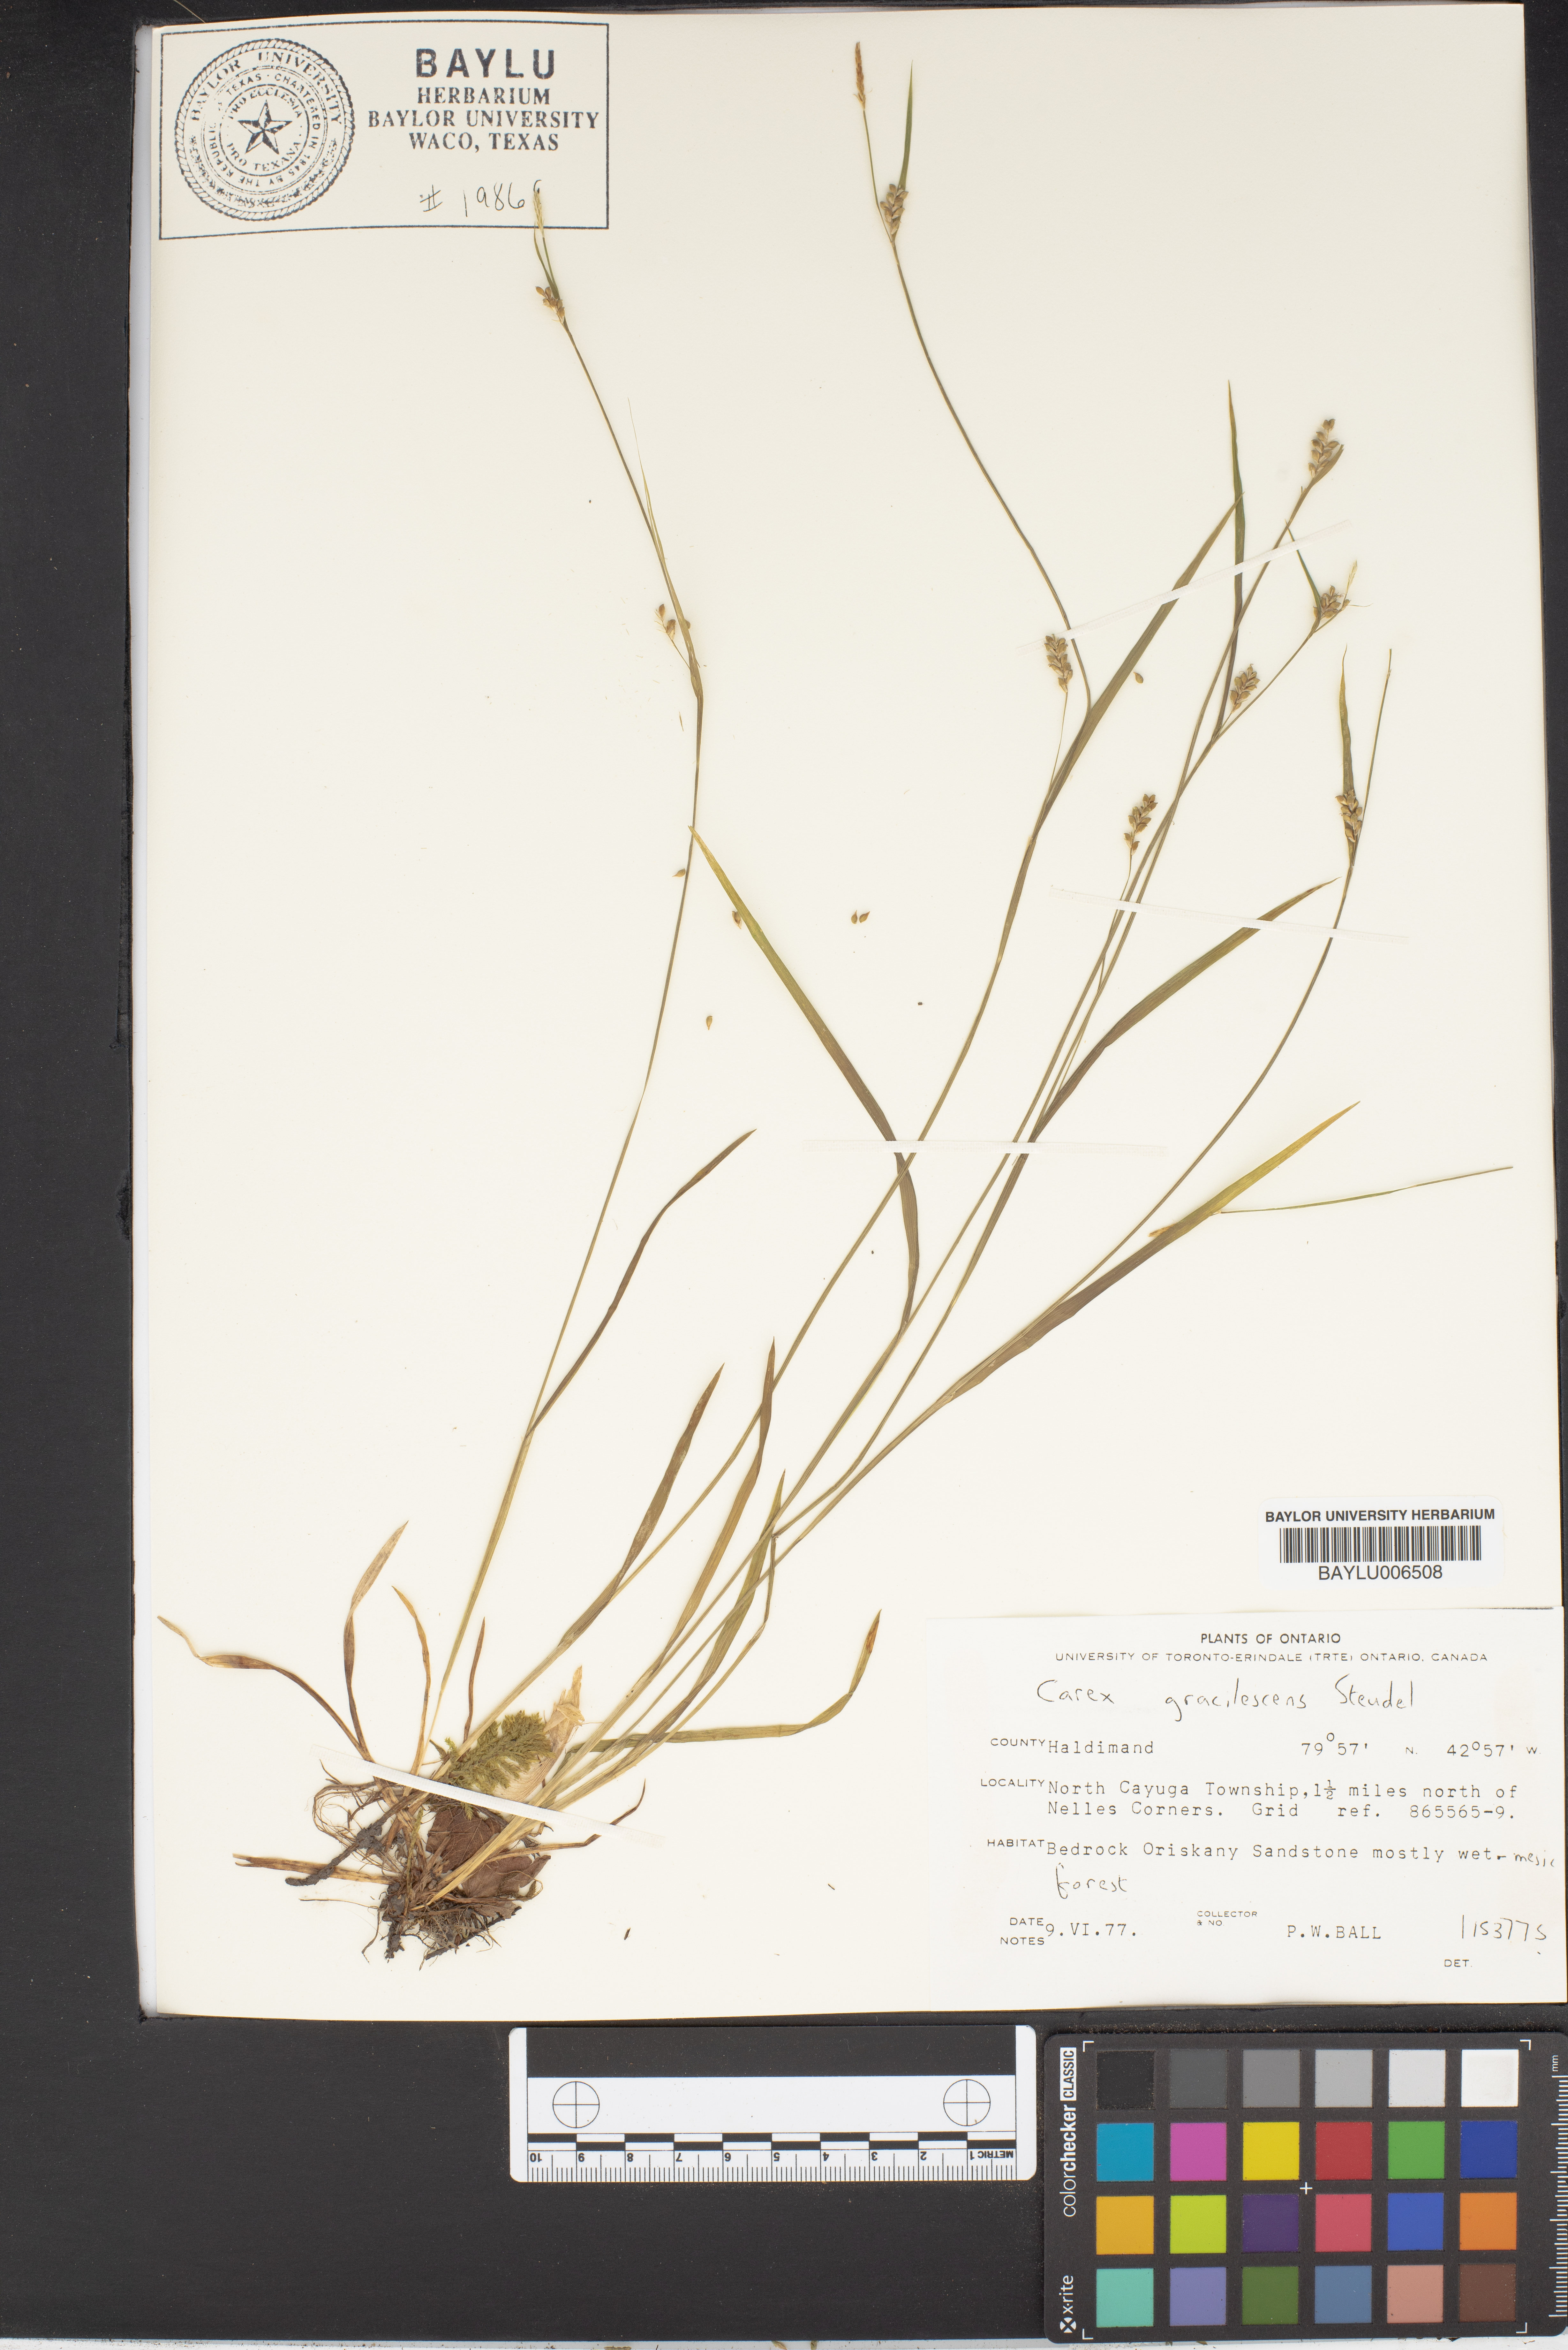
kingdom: Plantae
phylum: Tracheophyta
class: Liliopsida
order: Poales
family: Cyperaceae
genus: Carex
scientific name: Carex laxiflora
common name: Beech wood sedge
